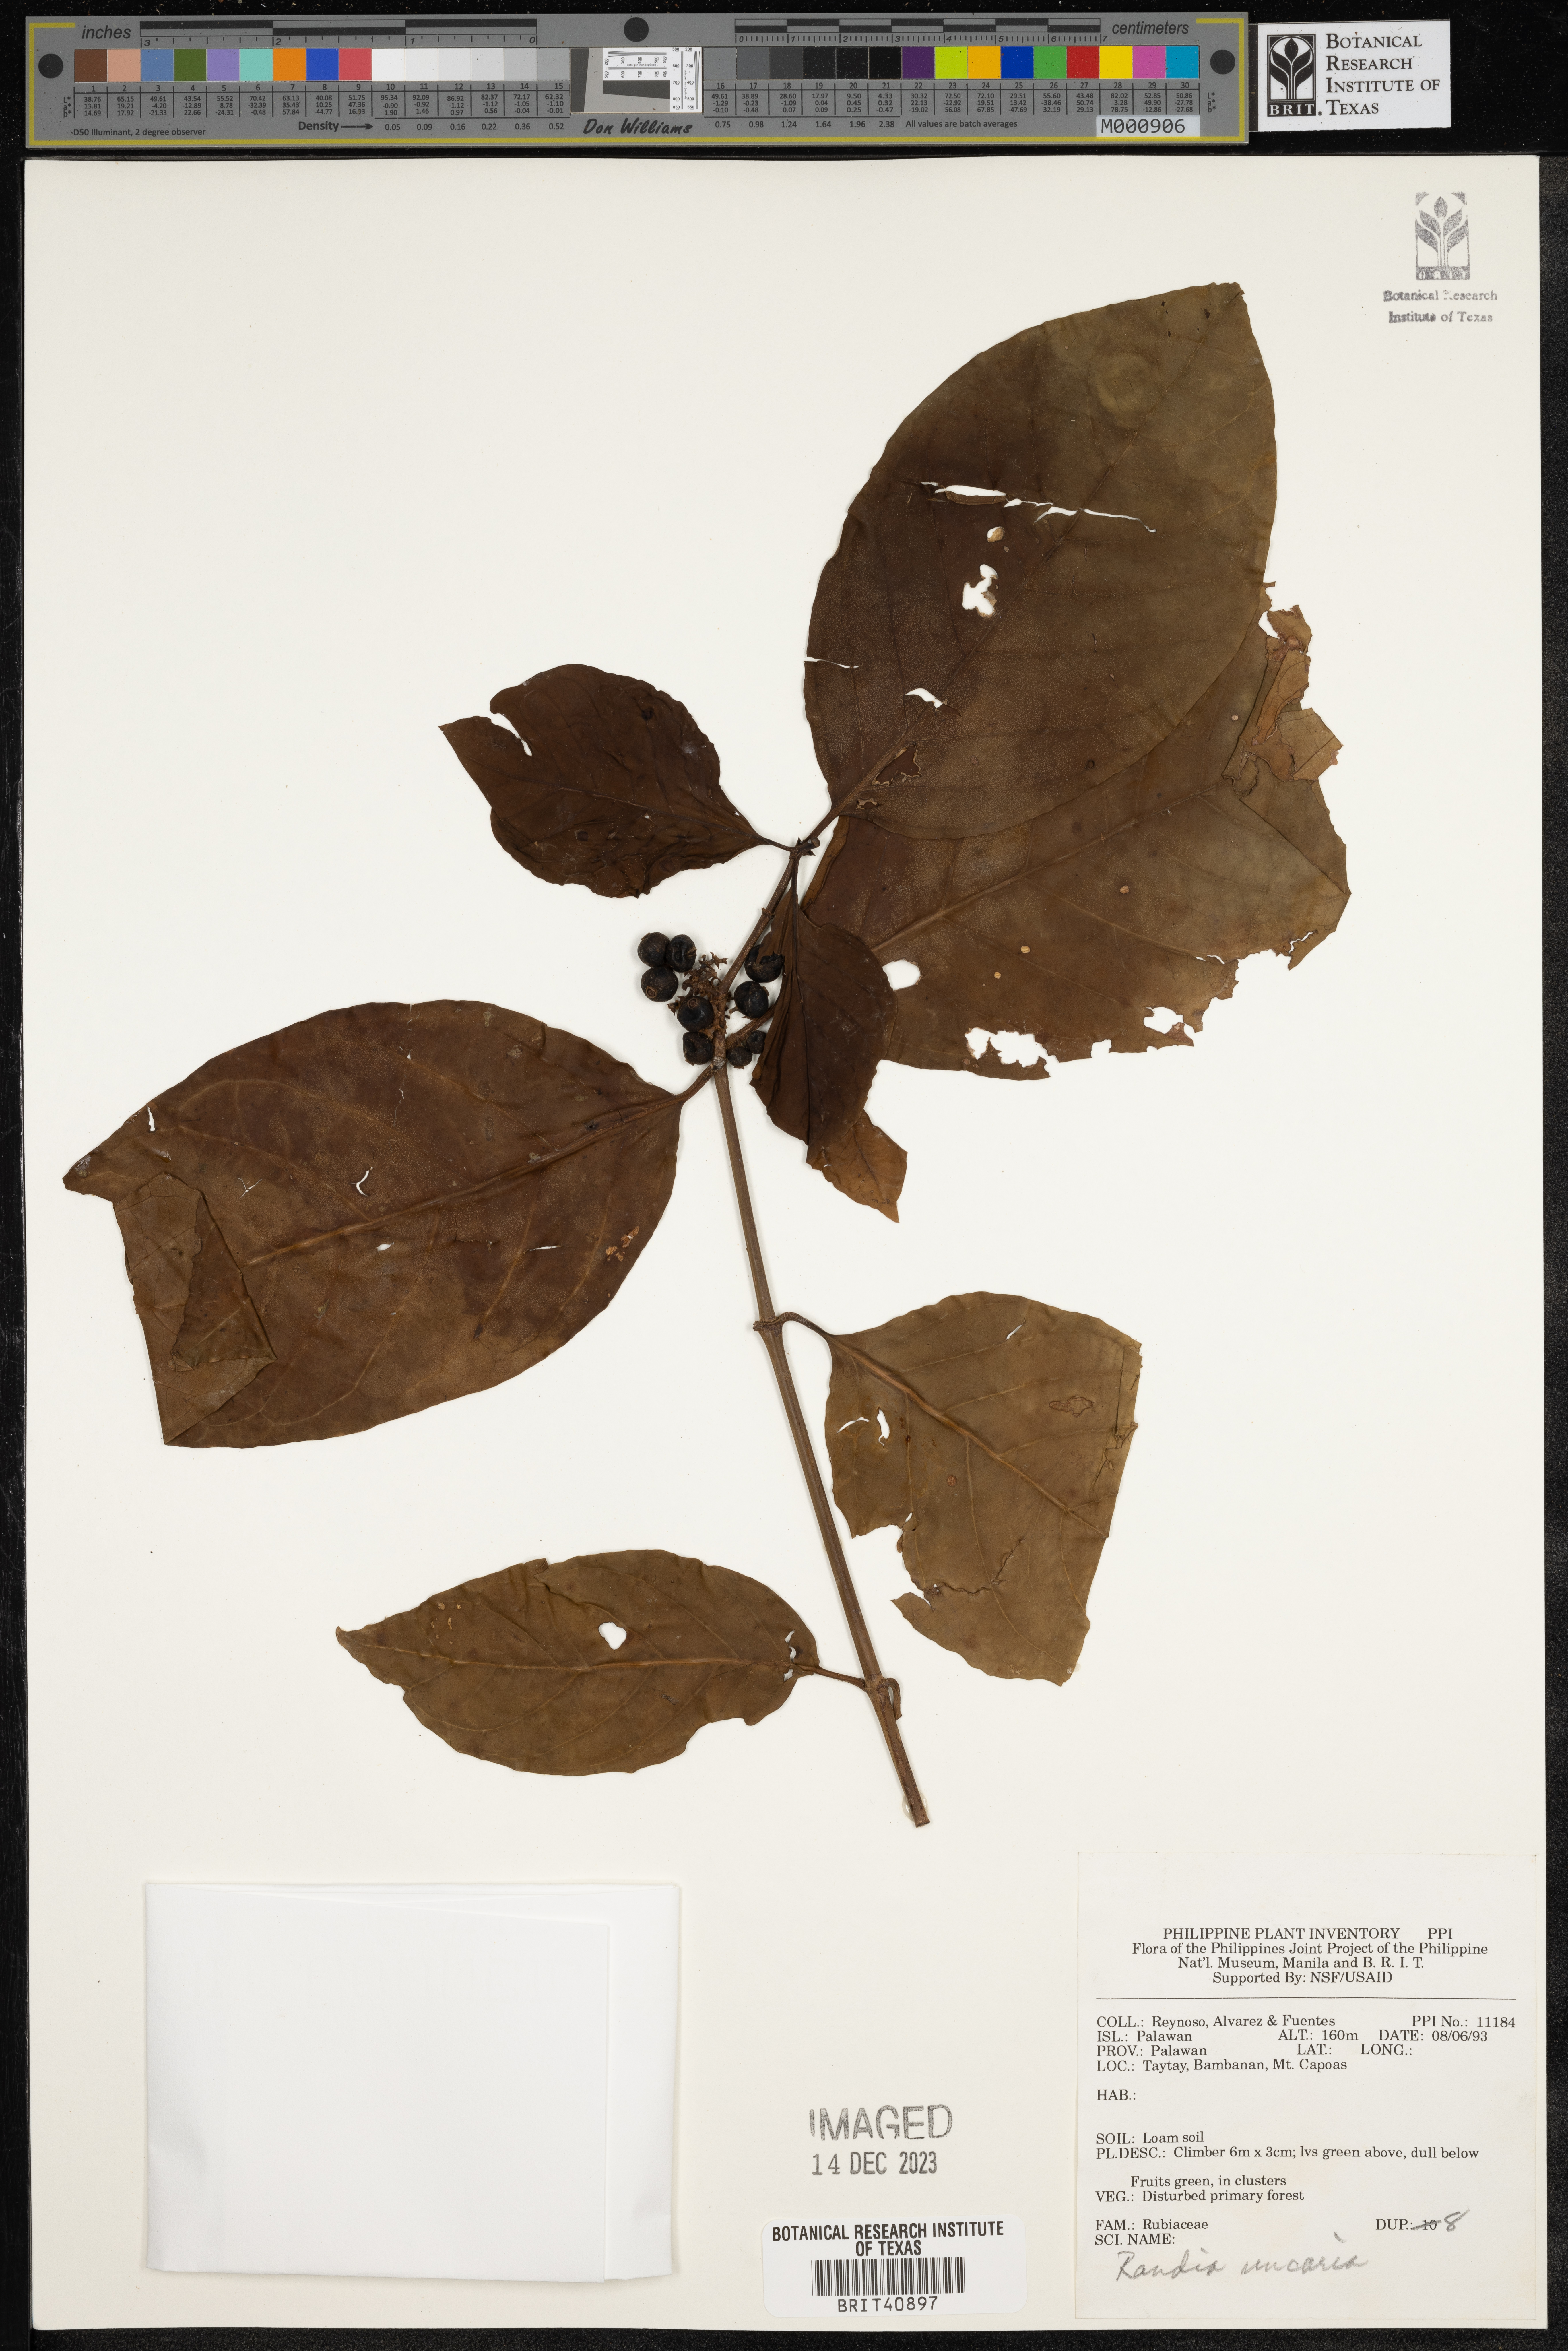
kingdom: Plantae
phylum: Tracheophyta
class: Polypodiopsida
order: Polypodiales
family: Dennstaedtiaceae
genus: Pteridium
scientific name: Pteridium aquilinum
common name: Bracken
